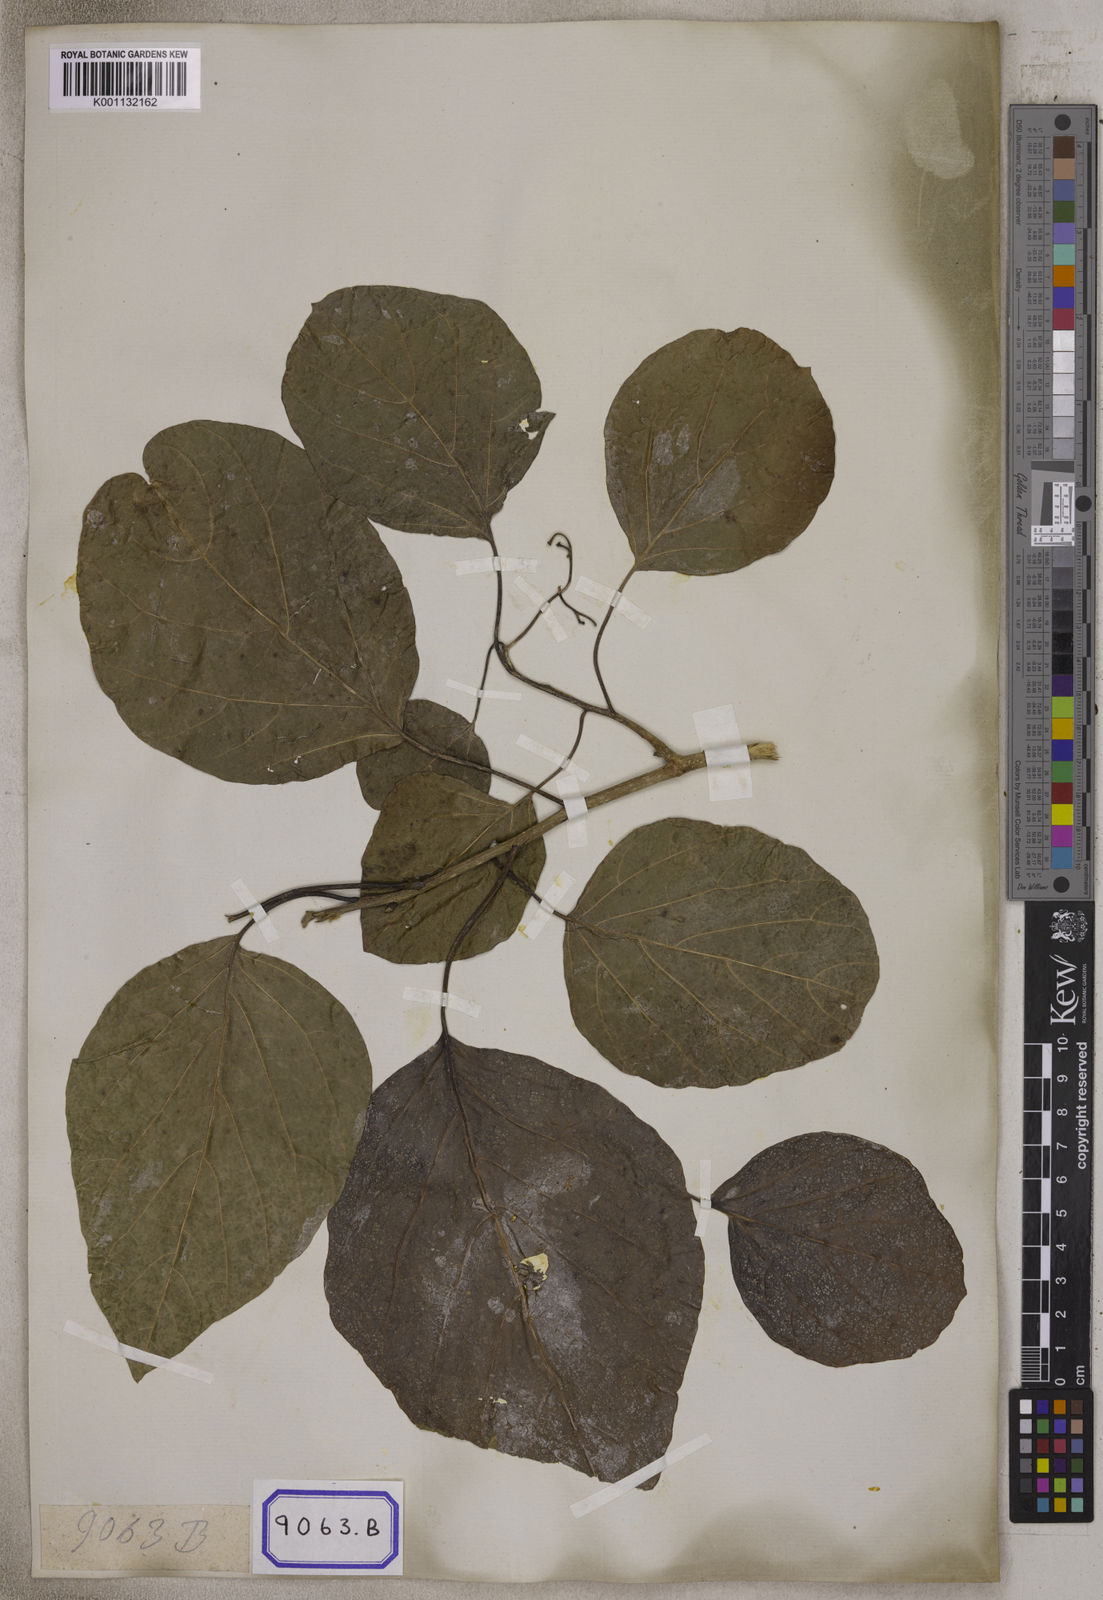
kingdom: Plantae
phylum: Tracheophyta
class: Magnoliopsida
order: Boraginales
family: Cordiaceae
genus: Cordia
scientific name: Cordia subcordata
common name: Mareer
